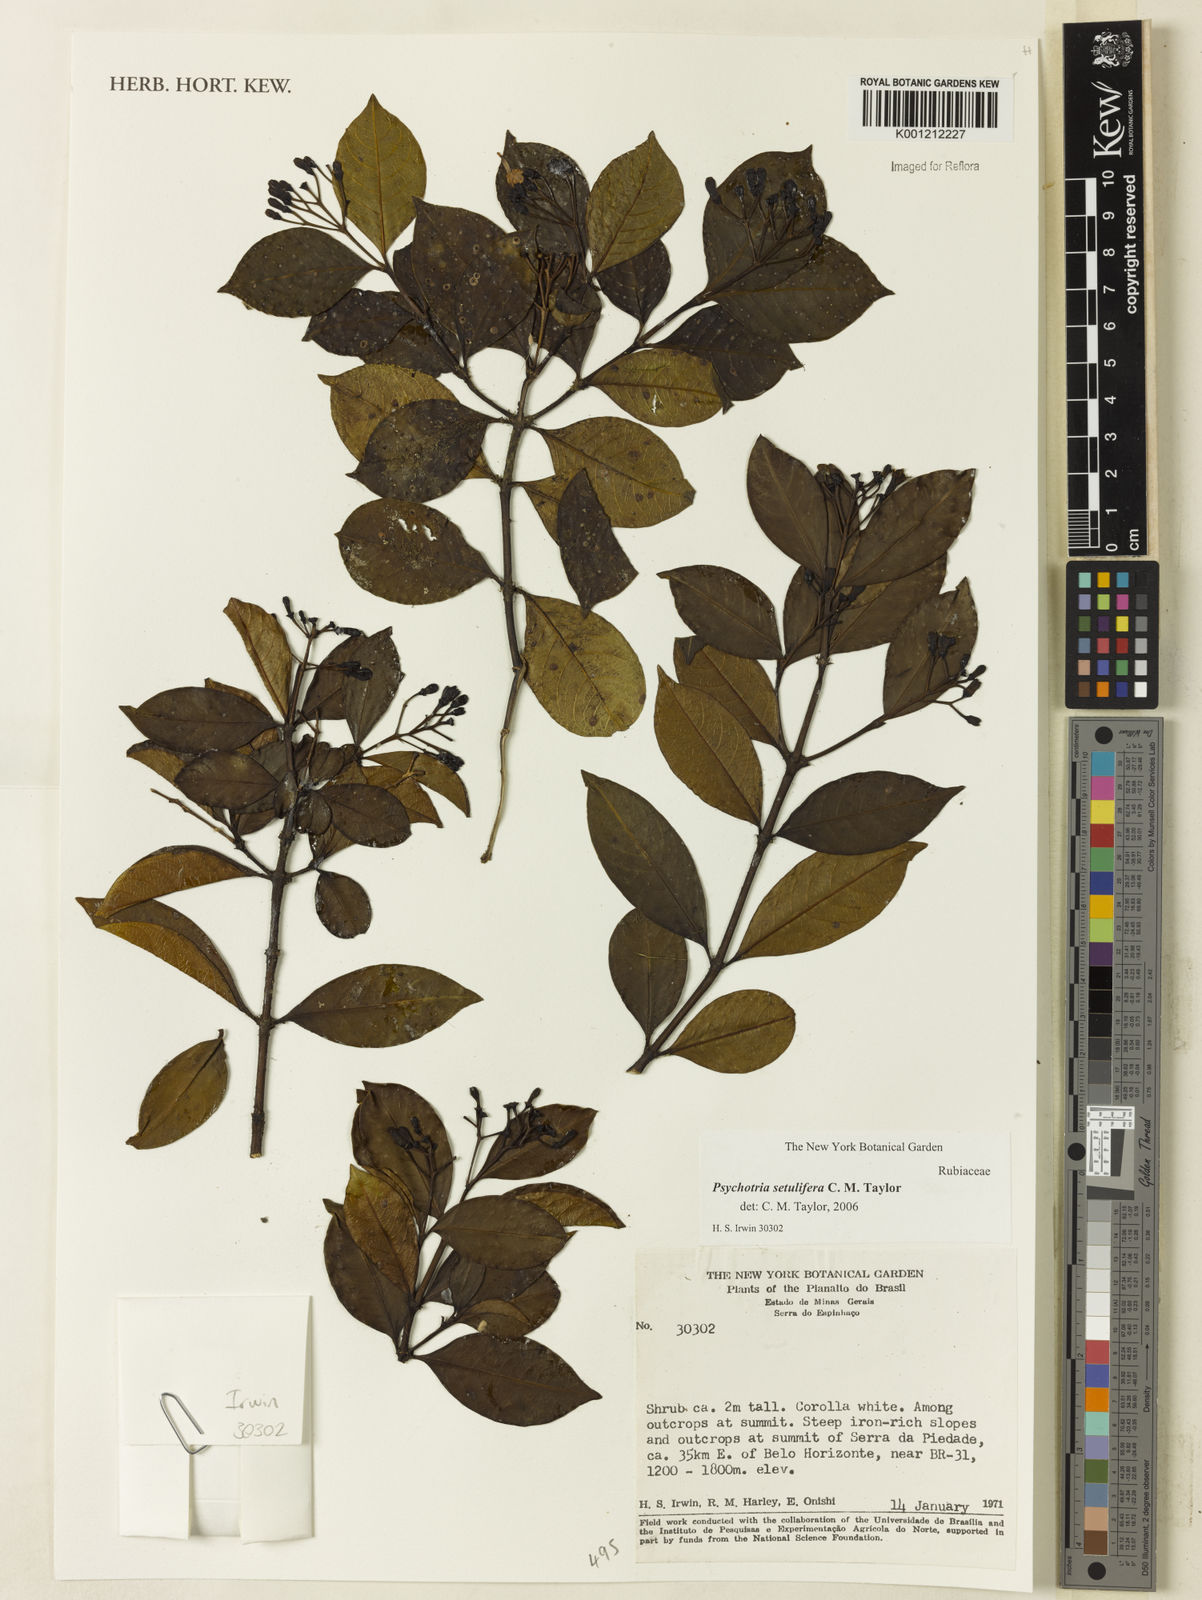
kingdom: Plantae
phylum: Tracheophyta
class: Magnoliopsida
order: Gentianales
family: Rubiaceae
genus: Psychotria
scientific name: Psychotria setulifera
